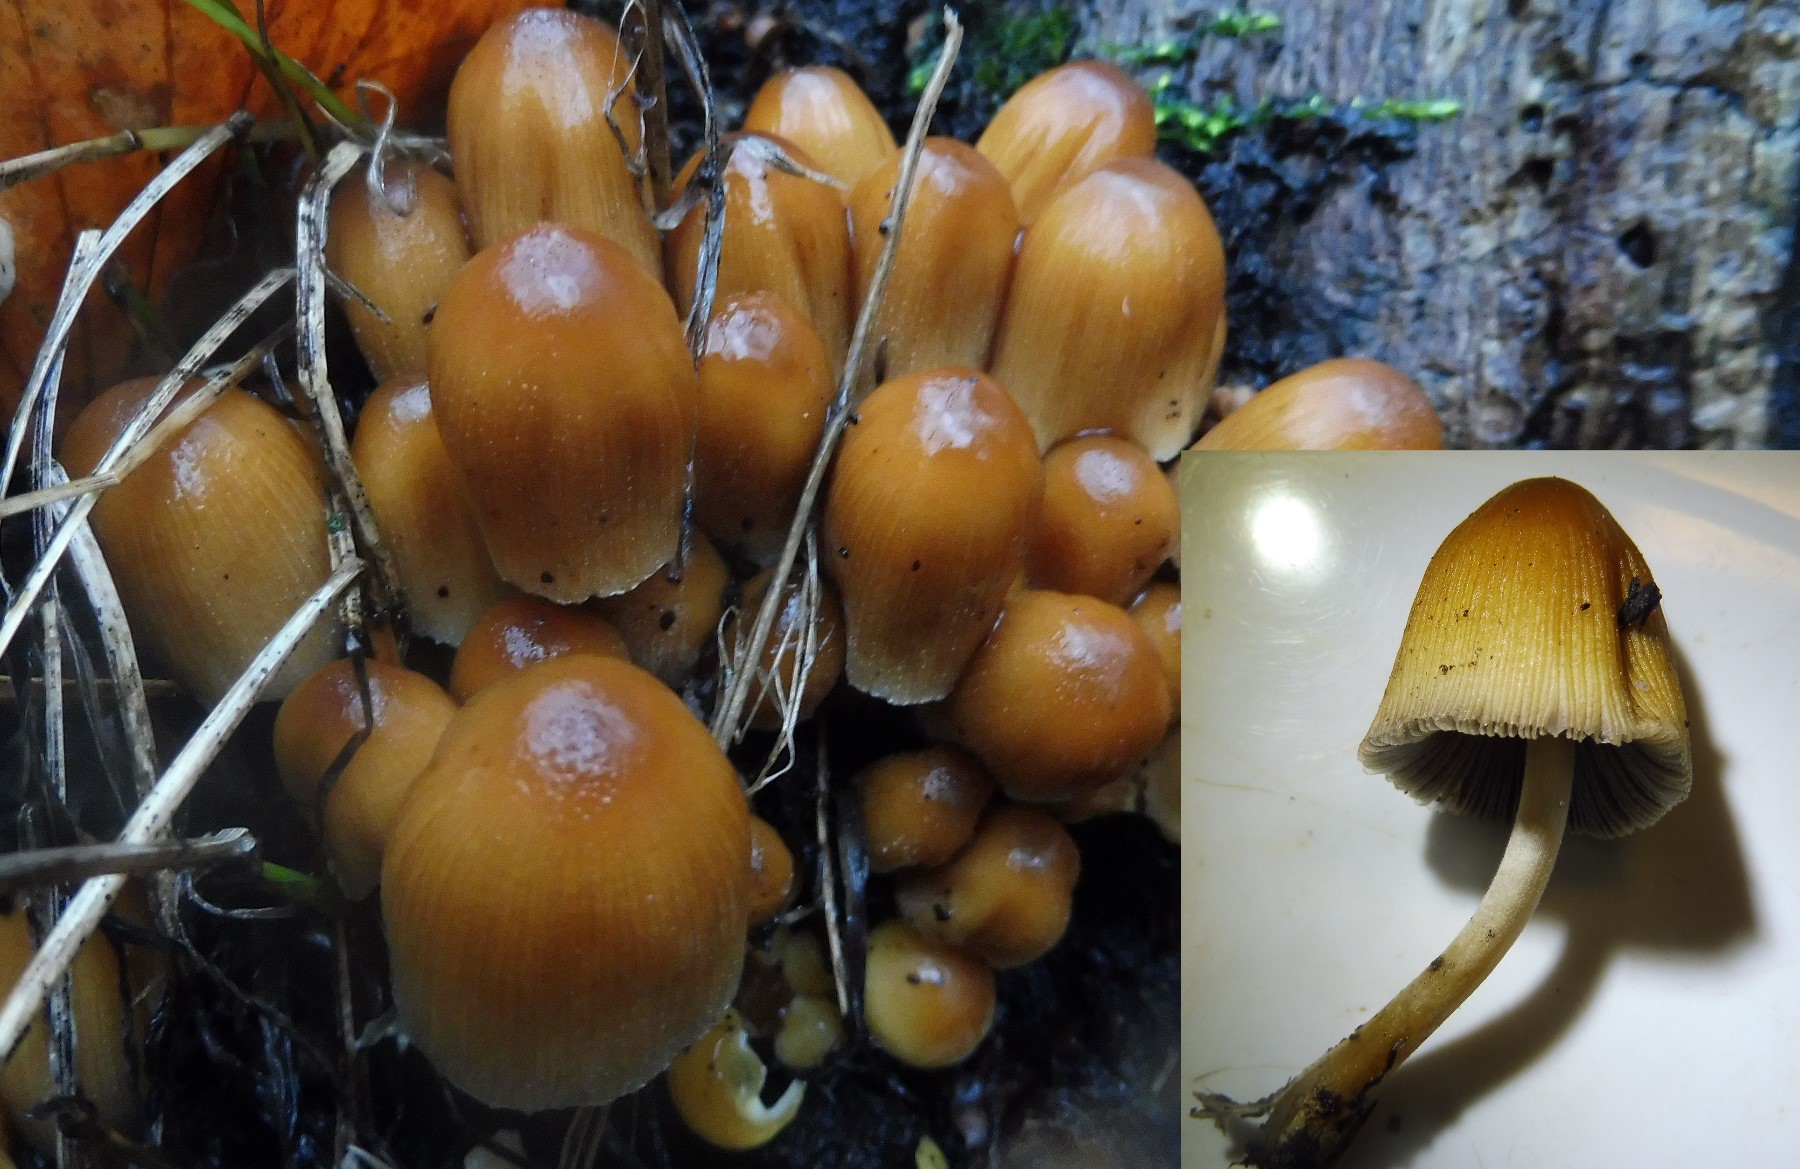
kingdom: Fungi
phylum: Basidiomycota
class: Agaricomycetes
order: Agaricales
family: Psathyrellaceae
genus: Coprinellus
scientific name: Coprinellus micaceus
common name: glimmer-blækhat
